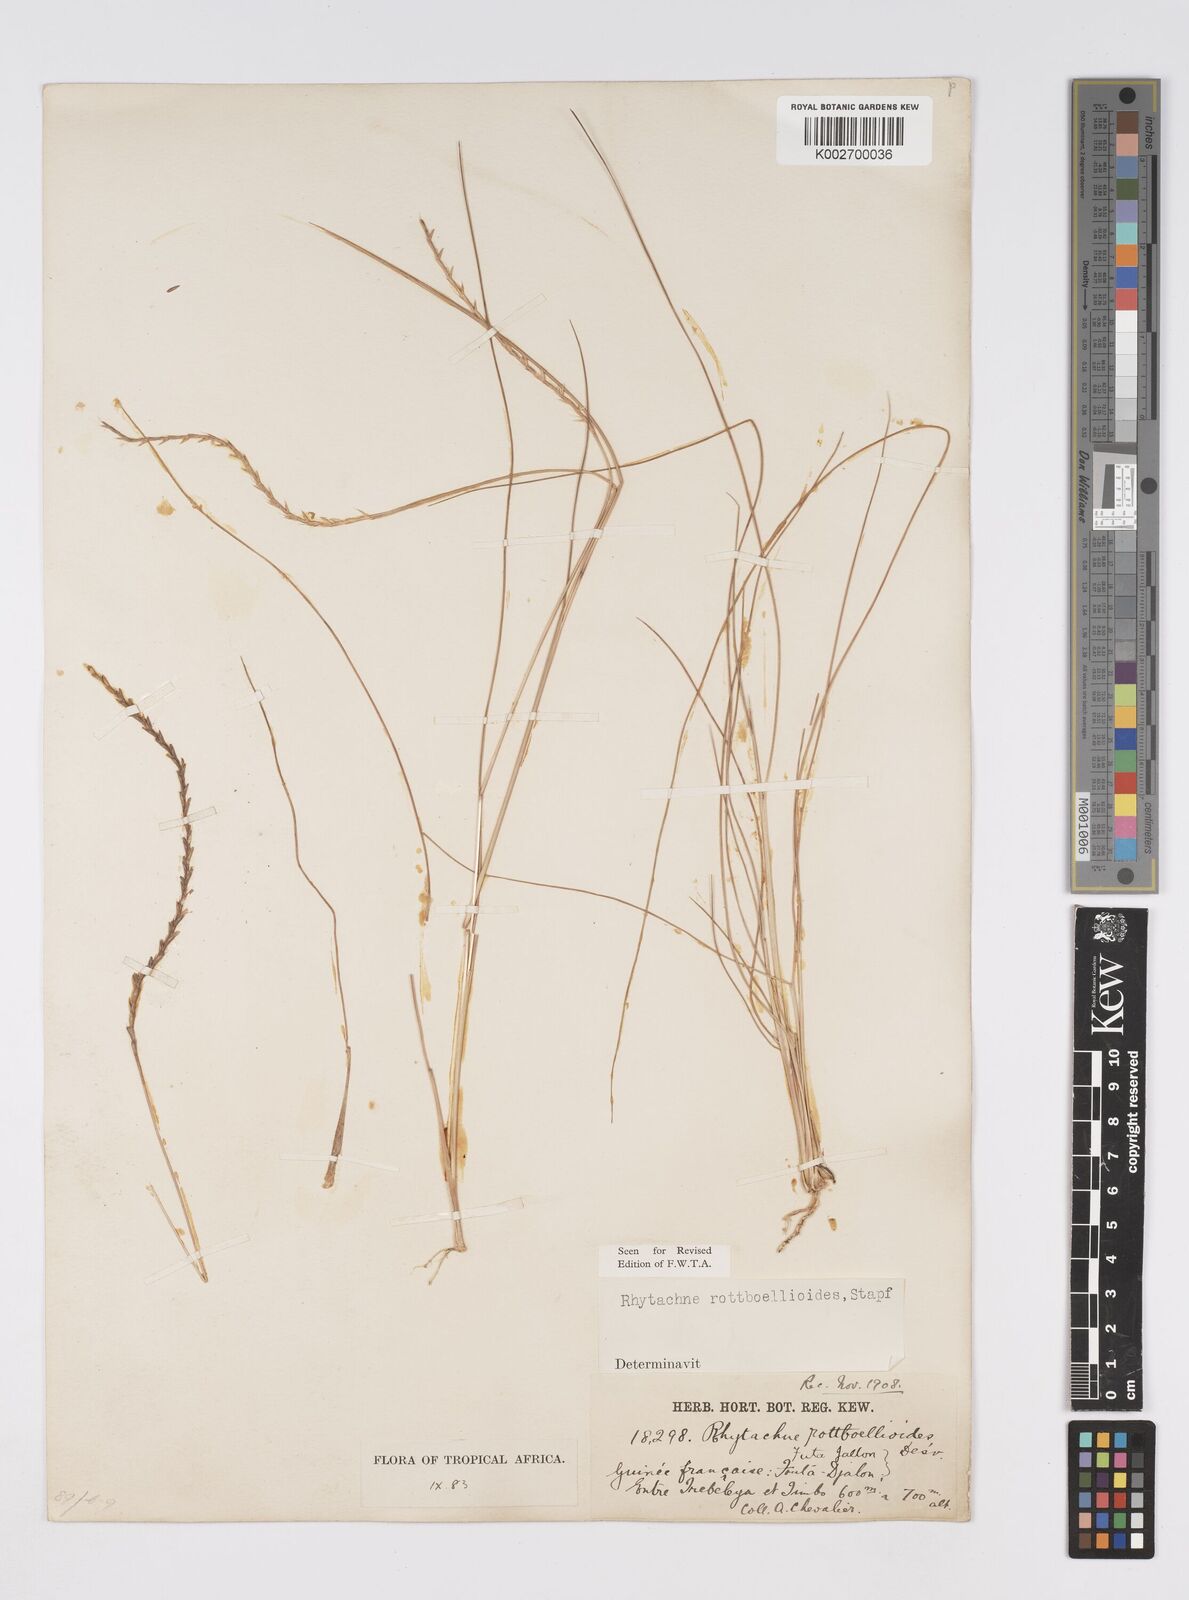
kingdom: Plantae
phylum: Tracheophyta
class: Liliopsida
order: Poales
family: Poaceae
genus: Rhytachne
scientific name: Rhytachne rottboellioides
